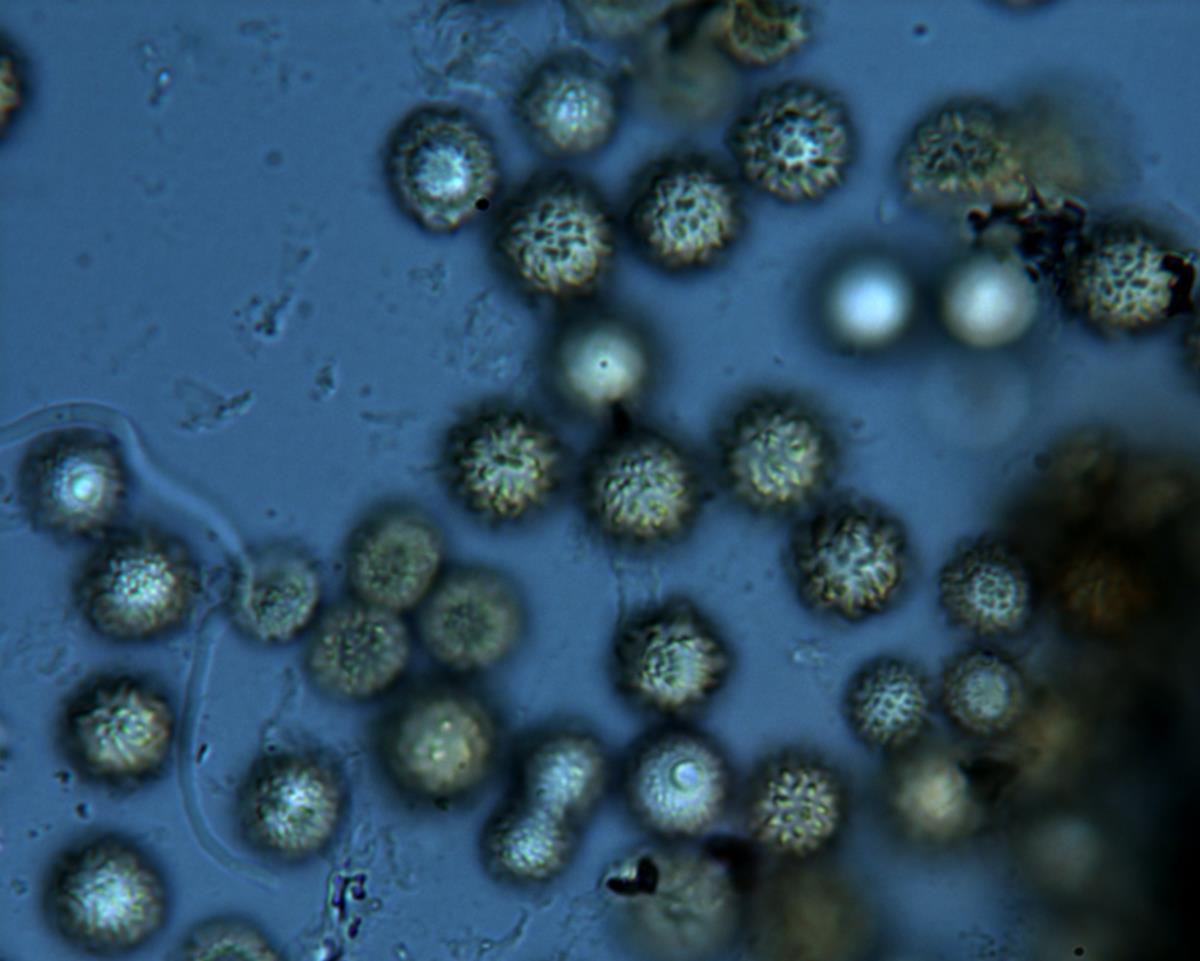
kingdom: Fungi
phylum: Basidiomycota
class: Agaricomycetes
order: Boletales
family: Sclerodermataceae
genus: Pisolithus
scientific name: Pisolithus
